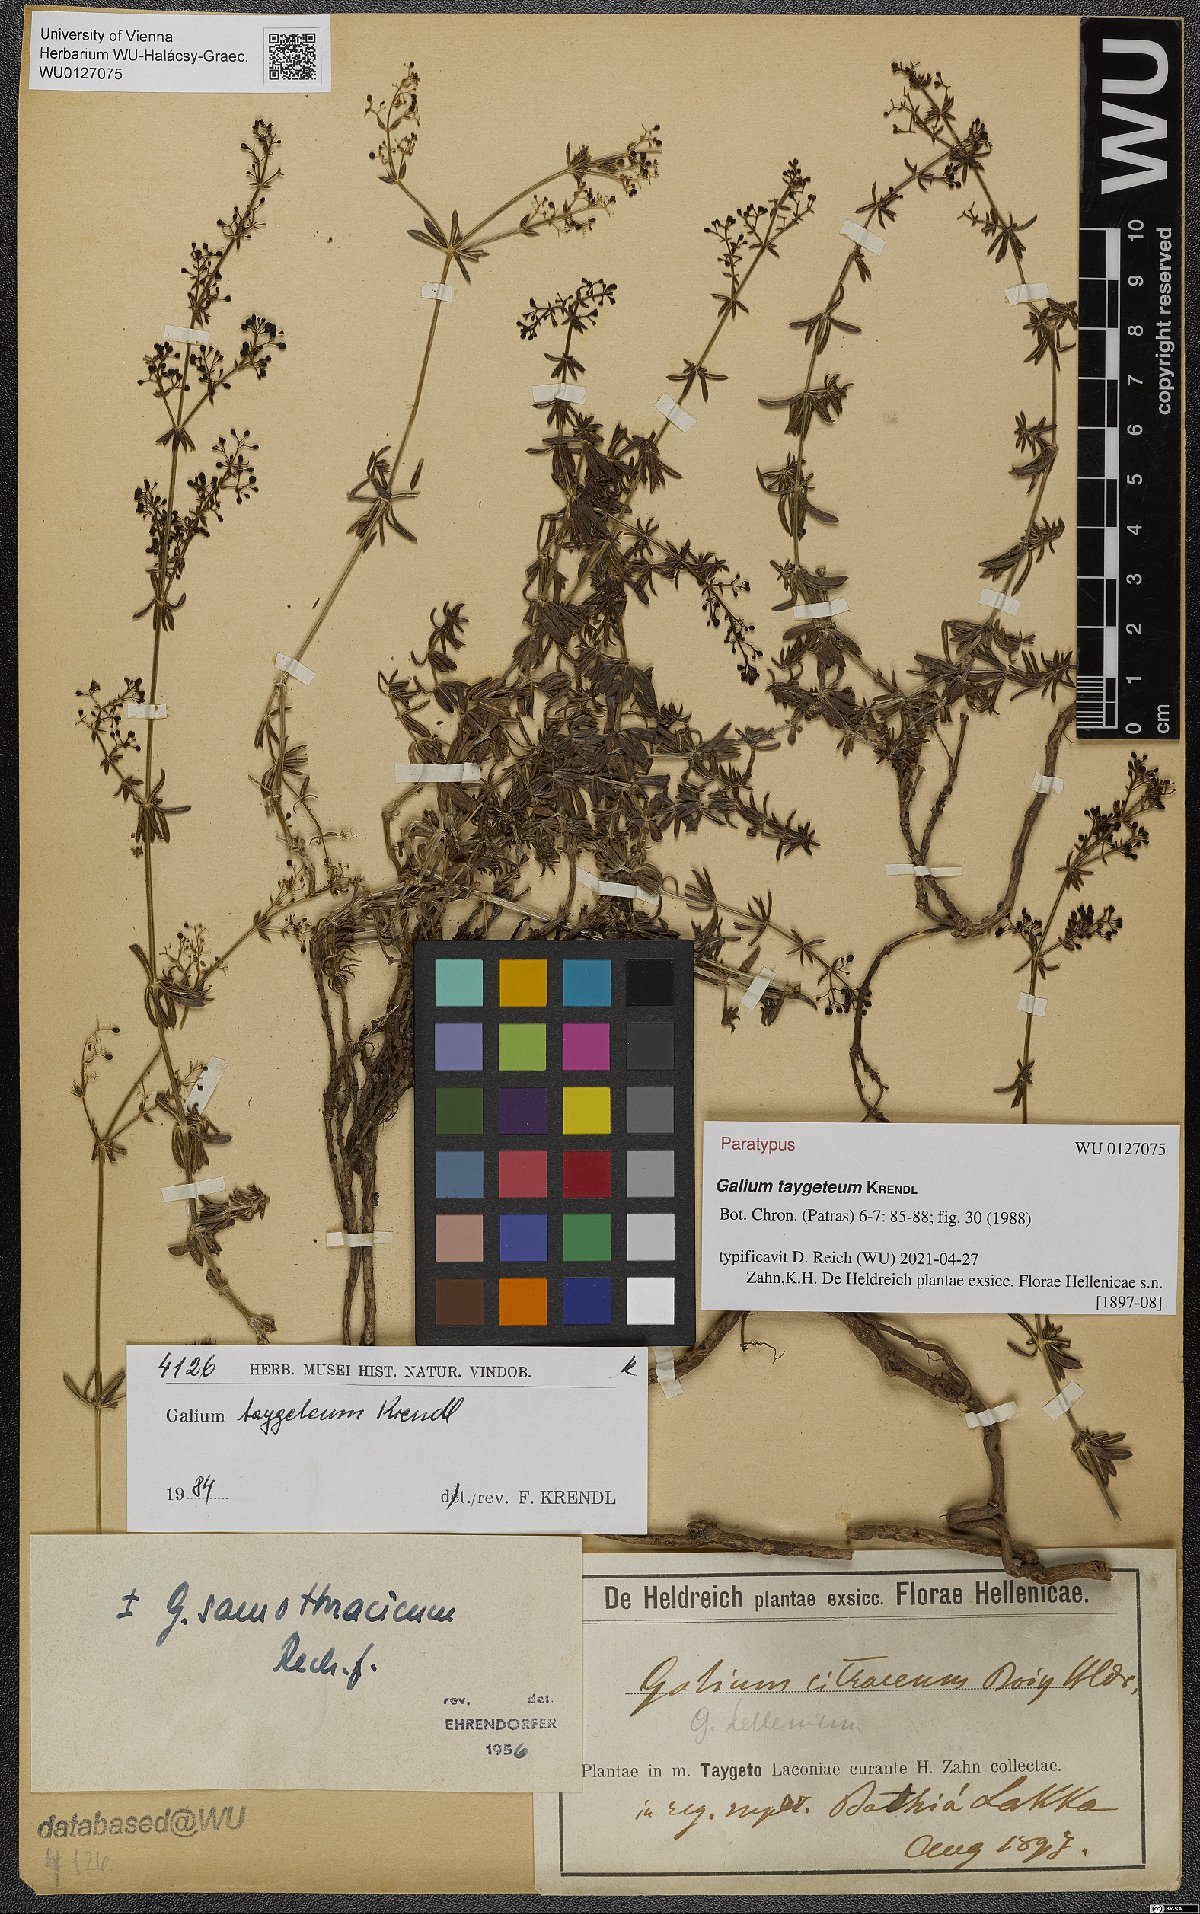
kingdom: Plantae
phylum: Tracheophyta
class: Magnoliopsida
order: Gentianales
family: Rubiaceae
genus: Galium
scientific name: Galium taygeteum
